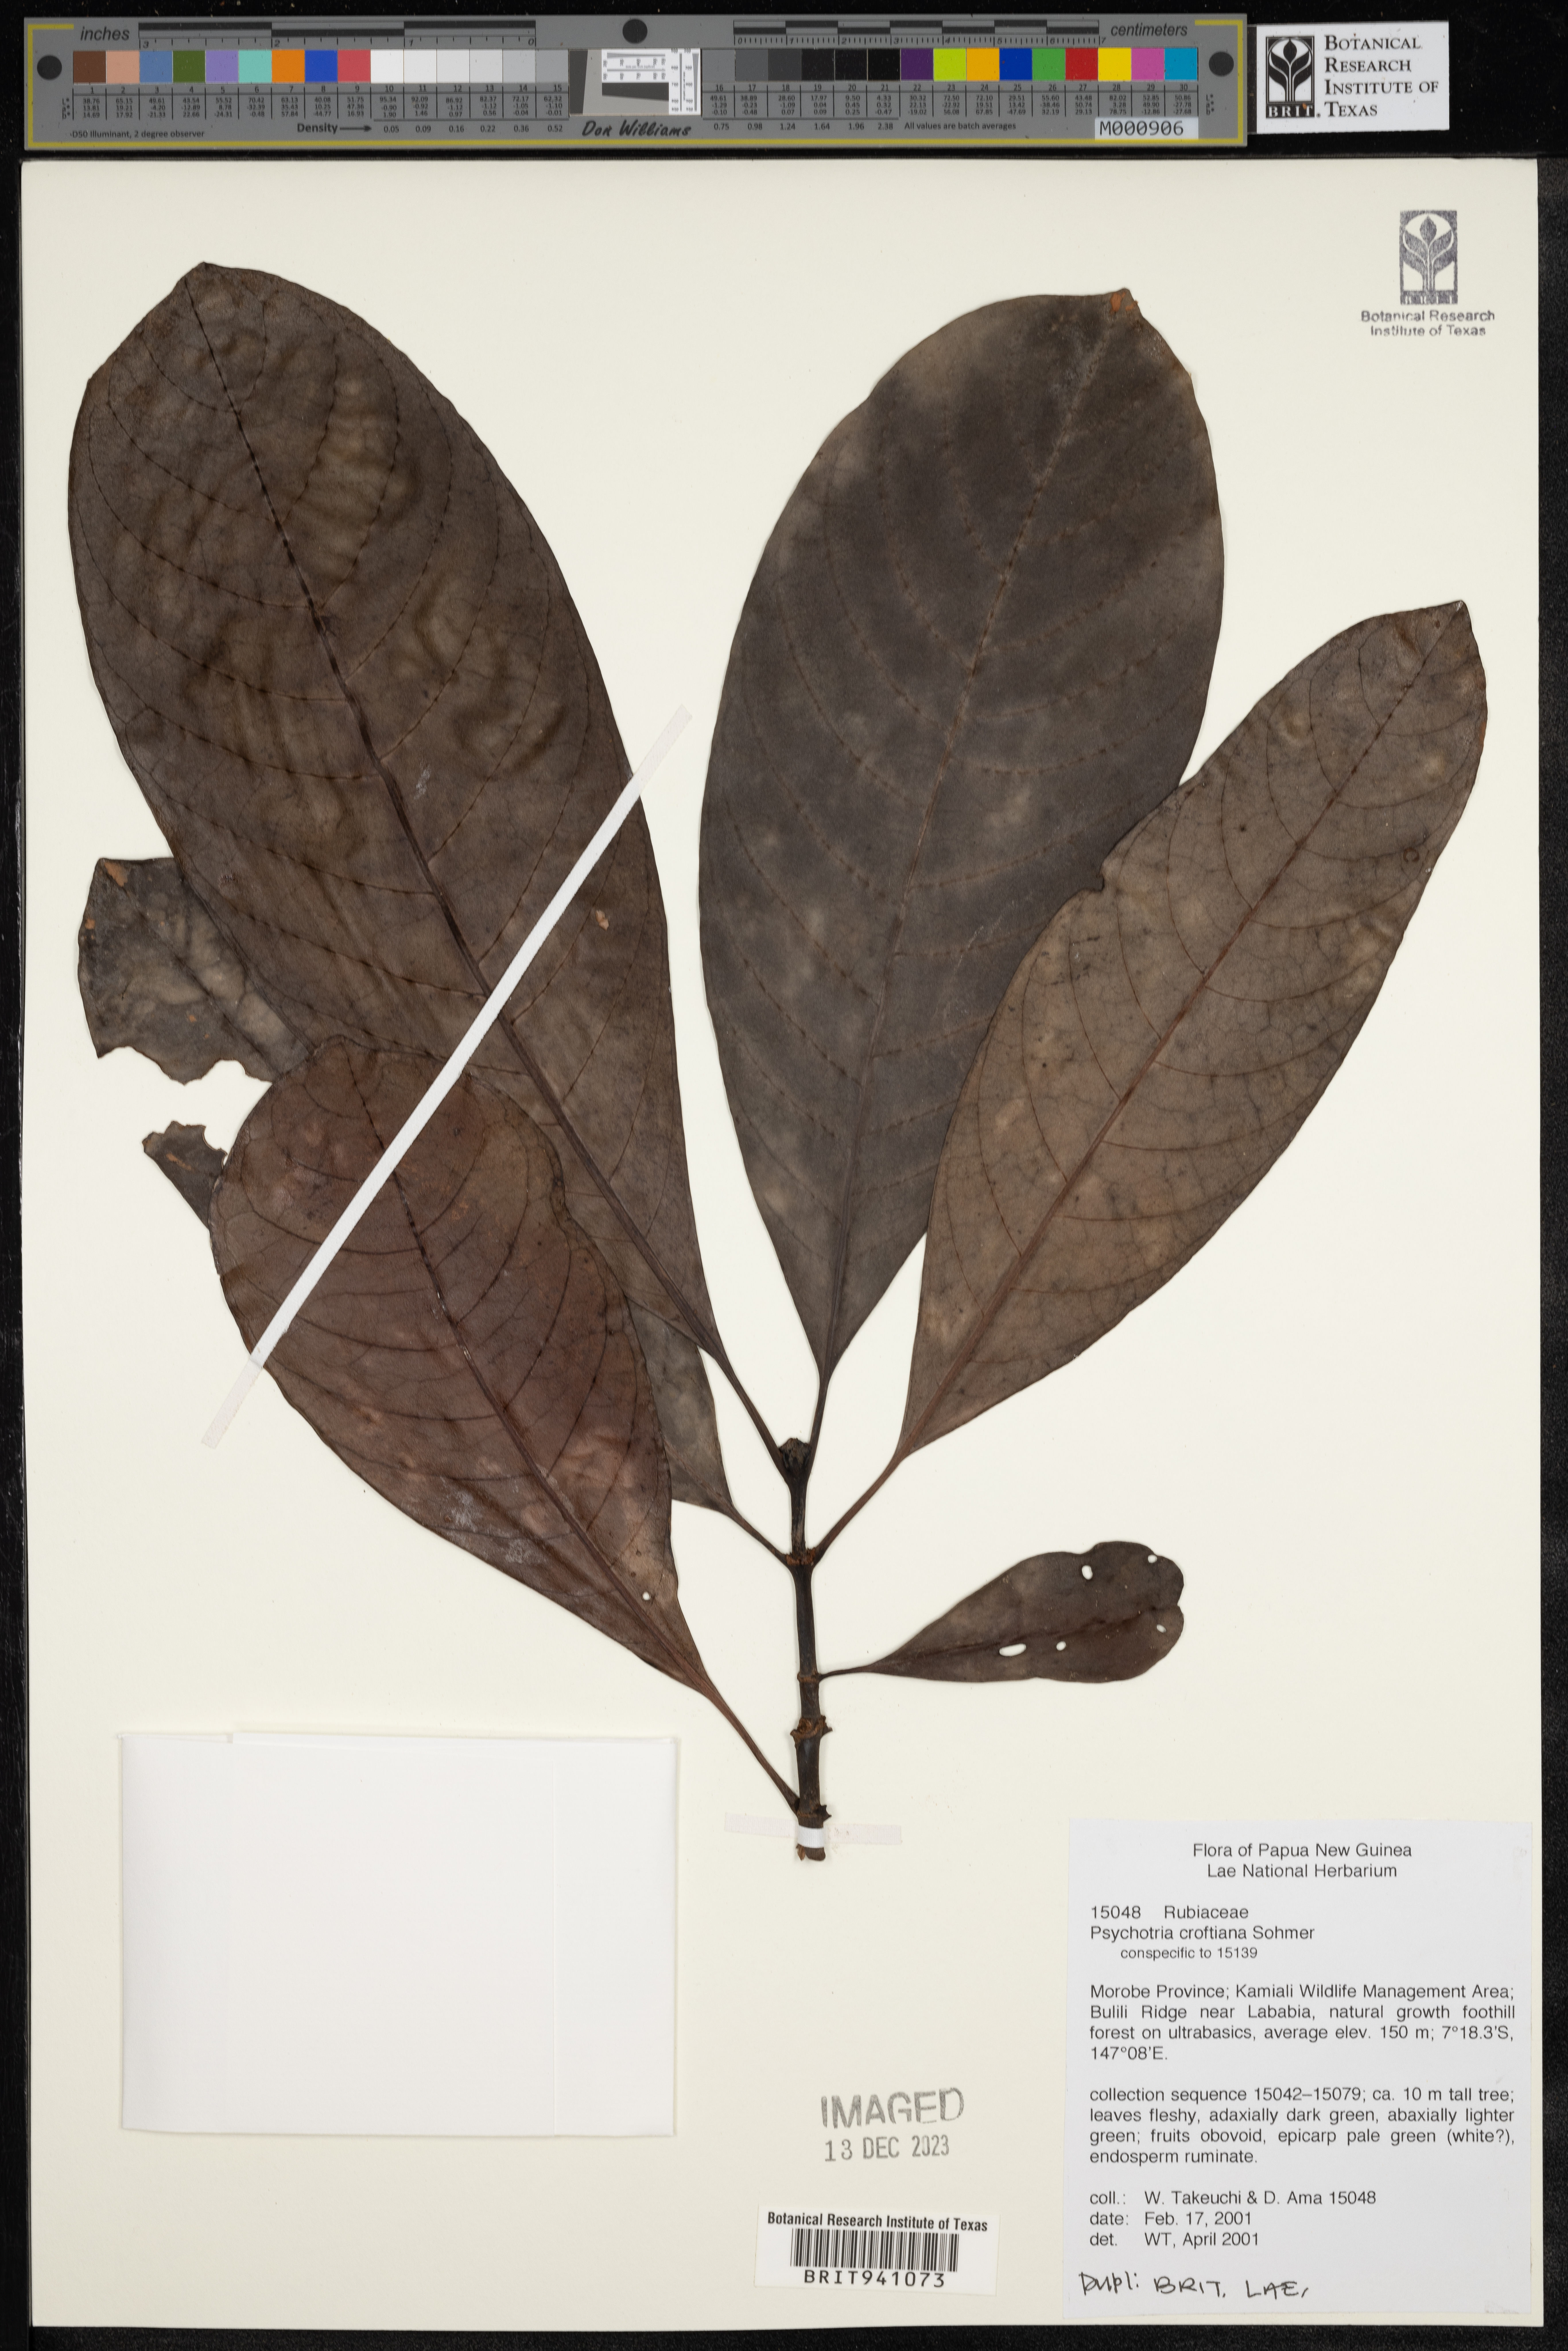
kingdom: Plantae
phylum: Tracheophyta
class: Magnoliopsida
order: Gentianales
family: Rubiaceae
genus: Psychotria
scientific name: Psychotria
